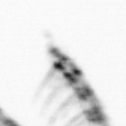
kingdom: Animalia
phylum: Arthropoda
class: Maxillopoda
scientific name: Maxillopoda
